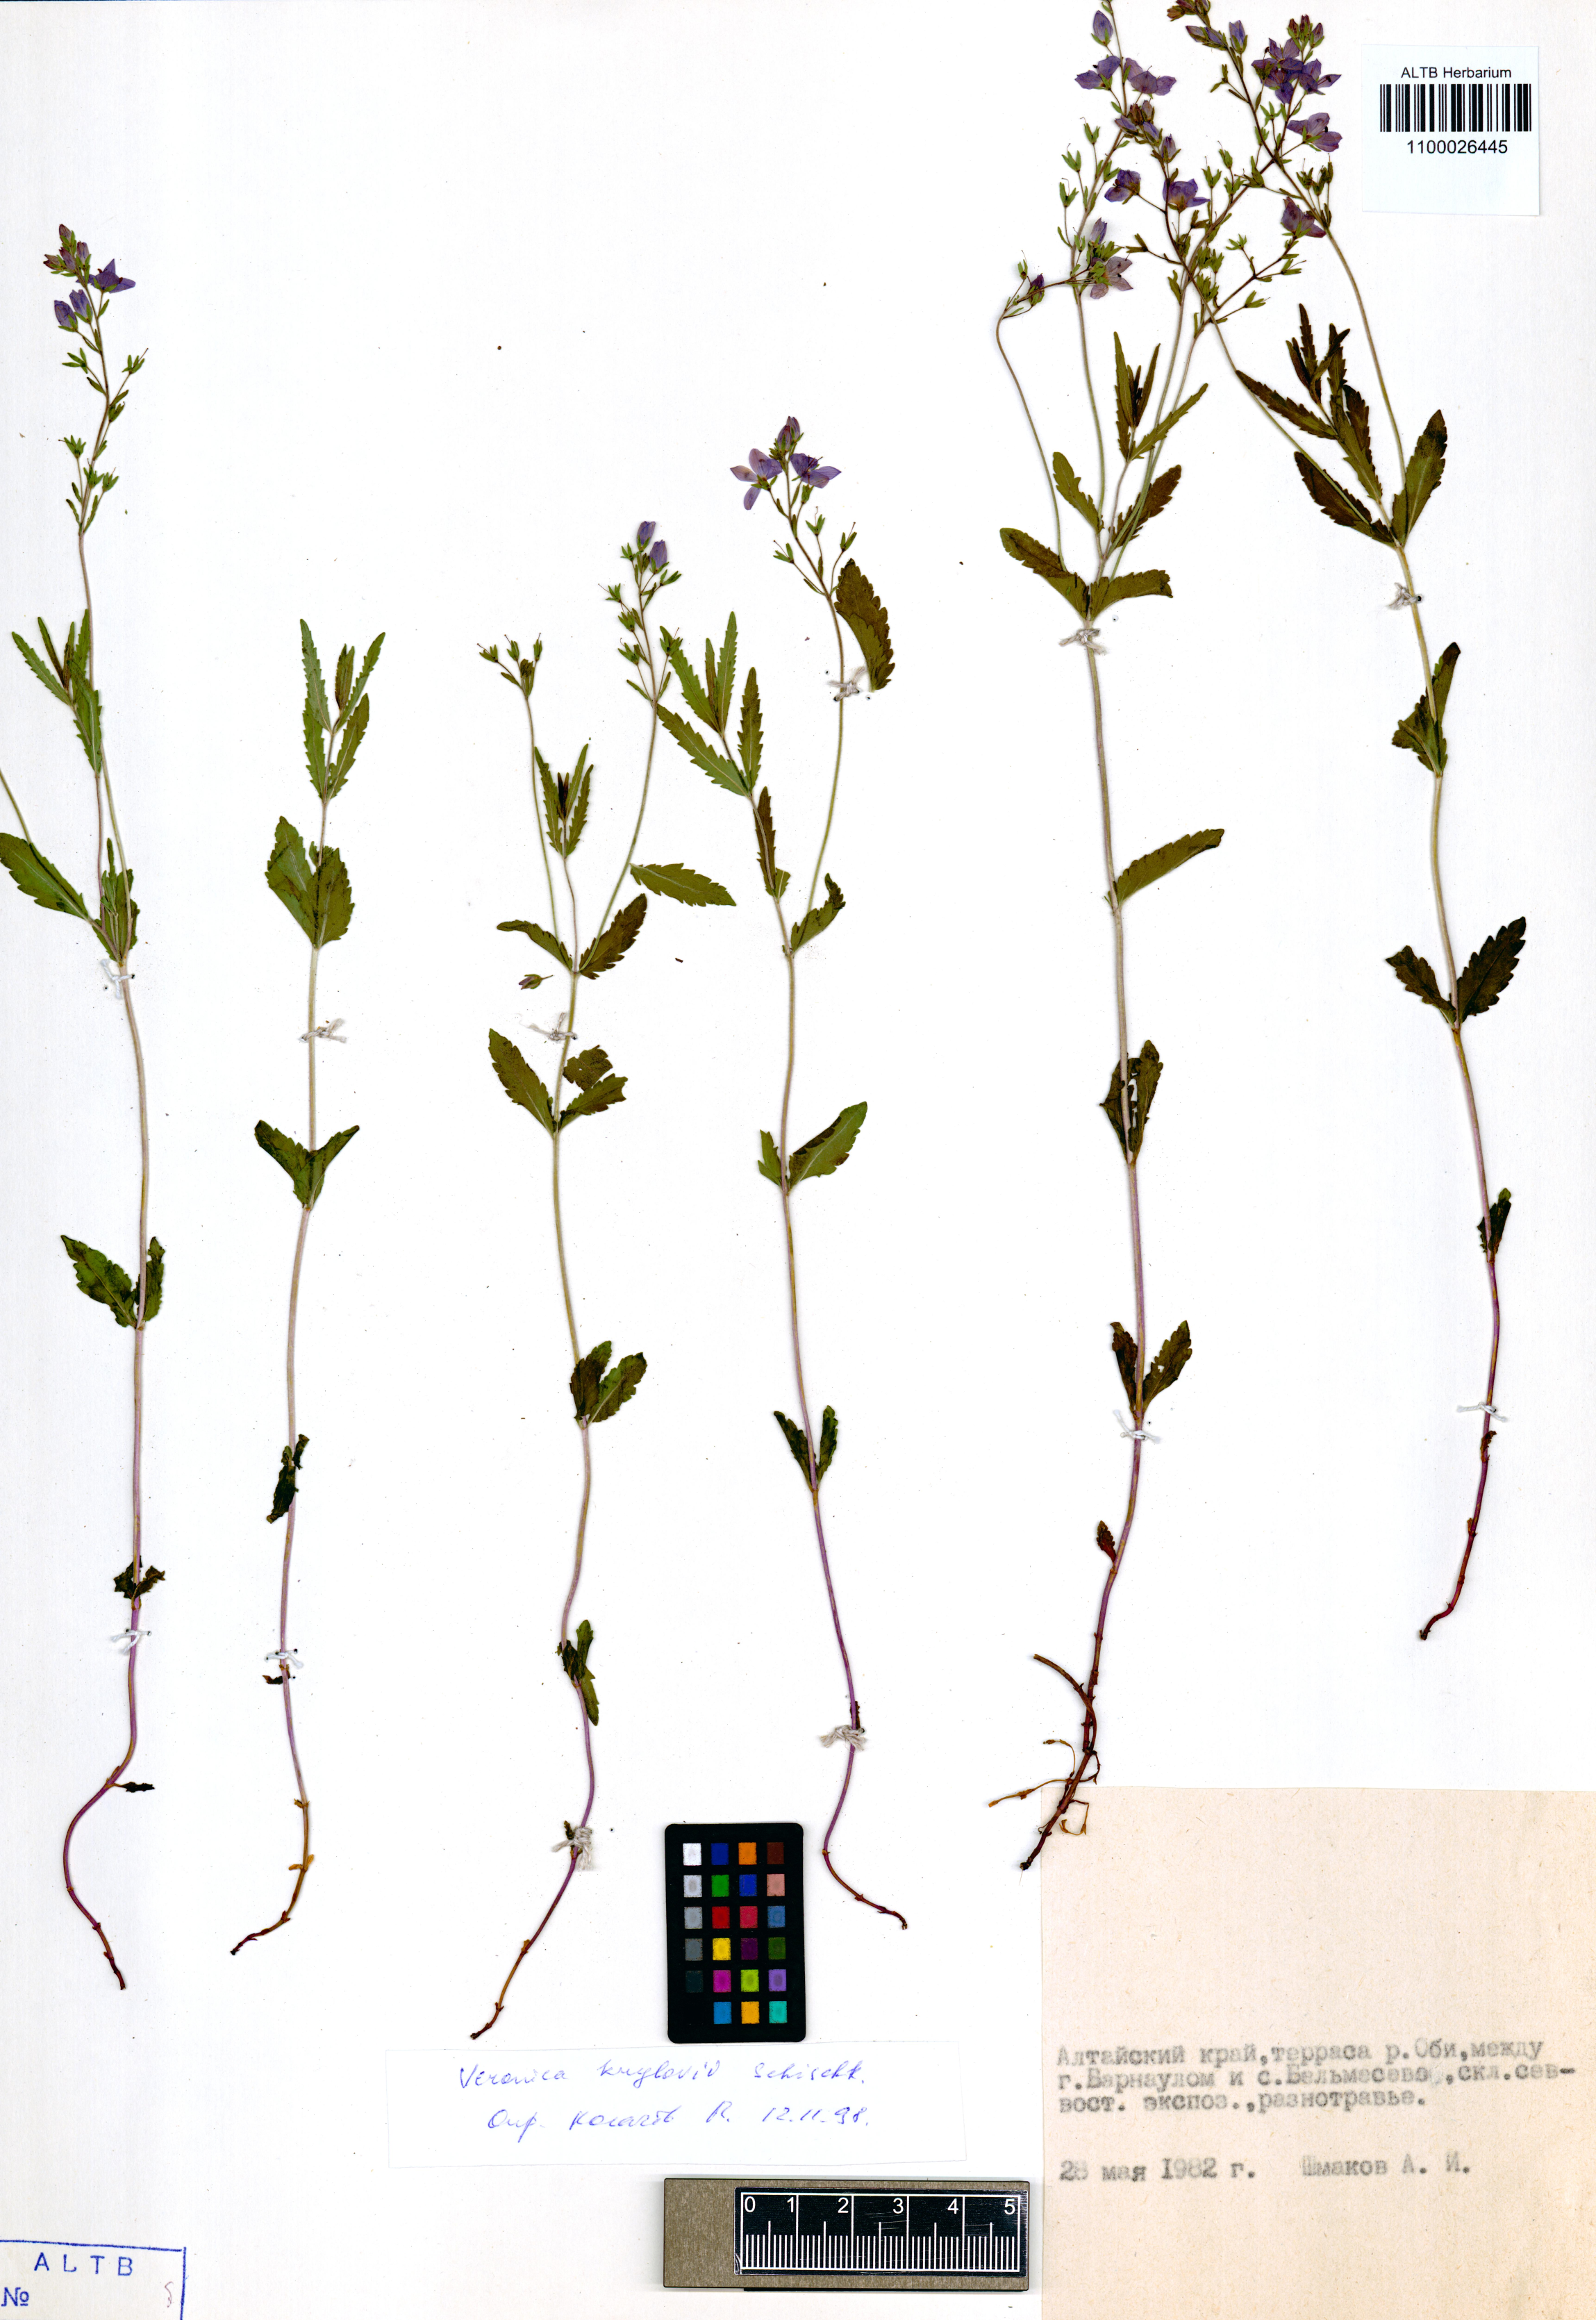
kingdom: Plantae
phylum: Tracheophyta
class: Magnoliopsida
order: Lamiales
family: Plantaginaceae
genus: Veronica
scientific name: Veronica krylovii
